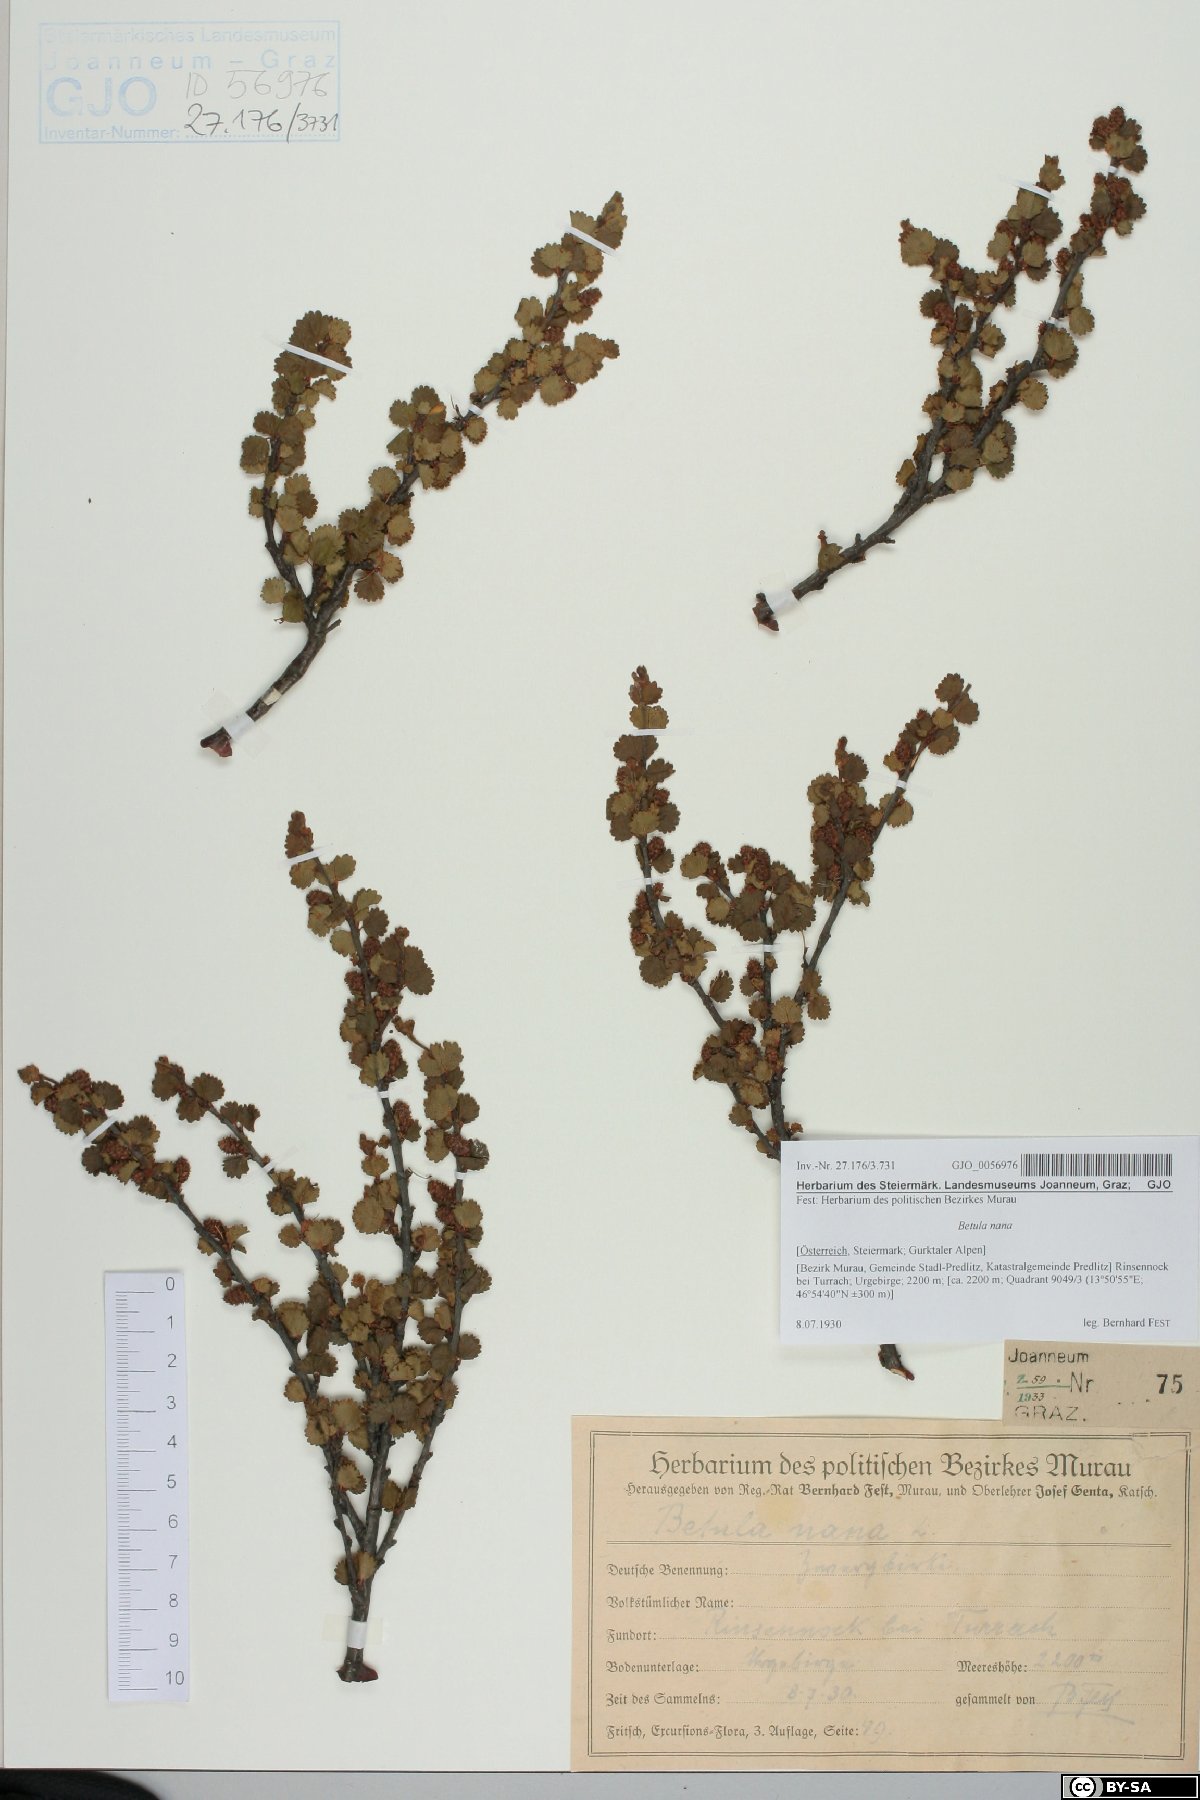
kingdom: Plantae
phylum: Tracheophyta
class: Magnoliopsida
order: Fagales
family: Betulaceae
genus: Betula
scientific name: Betula nana
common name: Arctic dwarf birch
